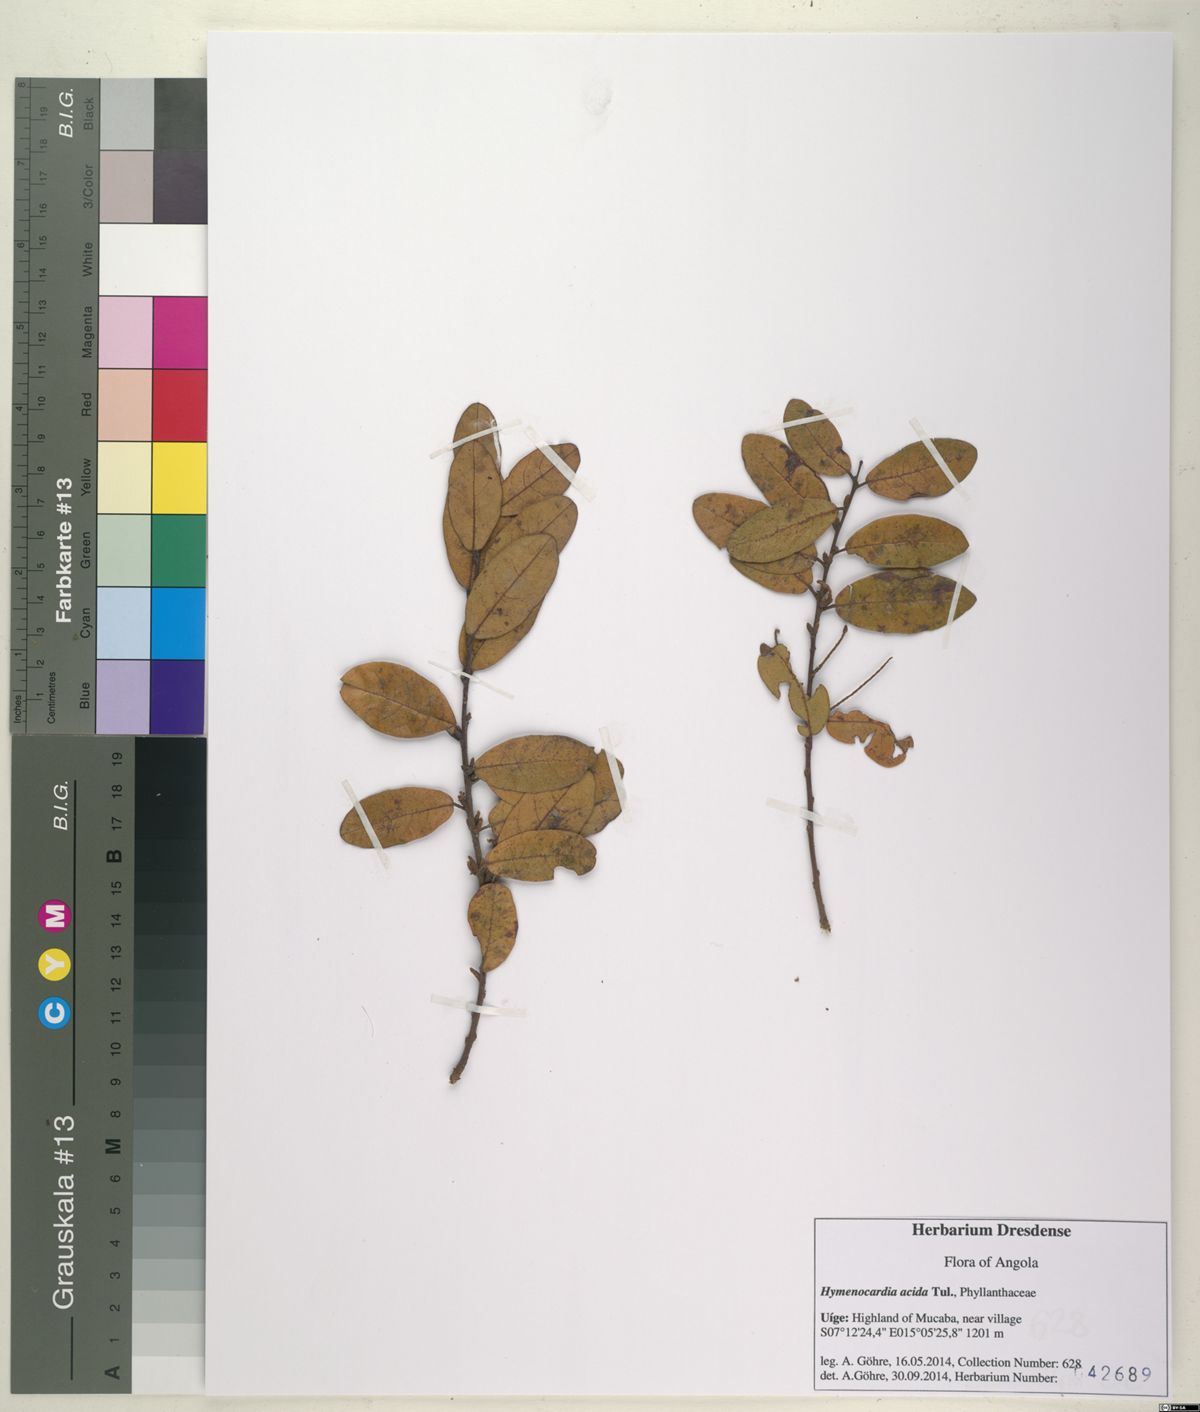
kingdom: Plantae
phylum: Tracheophyta
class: Magnoliopsida
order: Malpighiales
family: Phyllanthaceae
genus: Hymenocardia
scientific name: Hymenocardia acida
